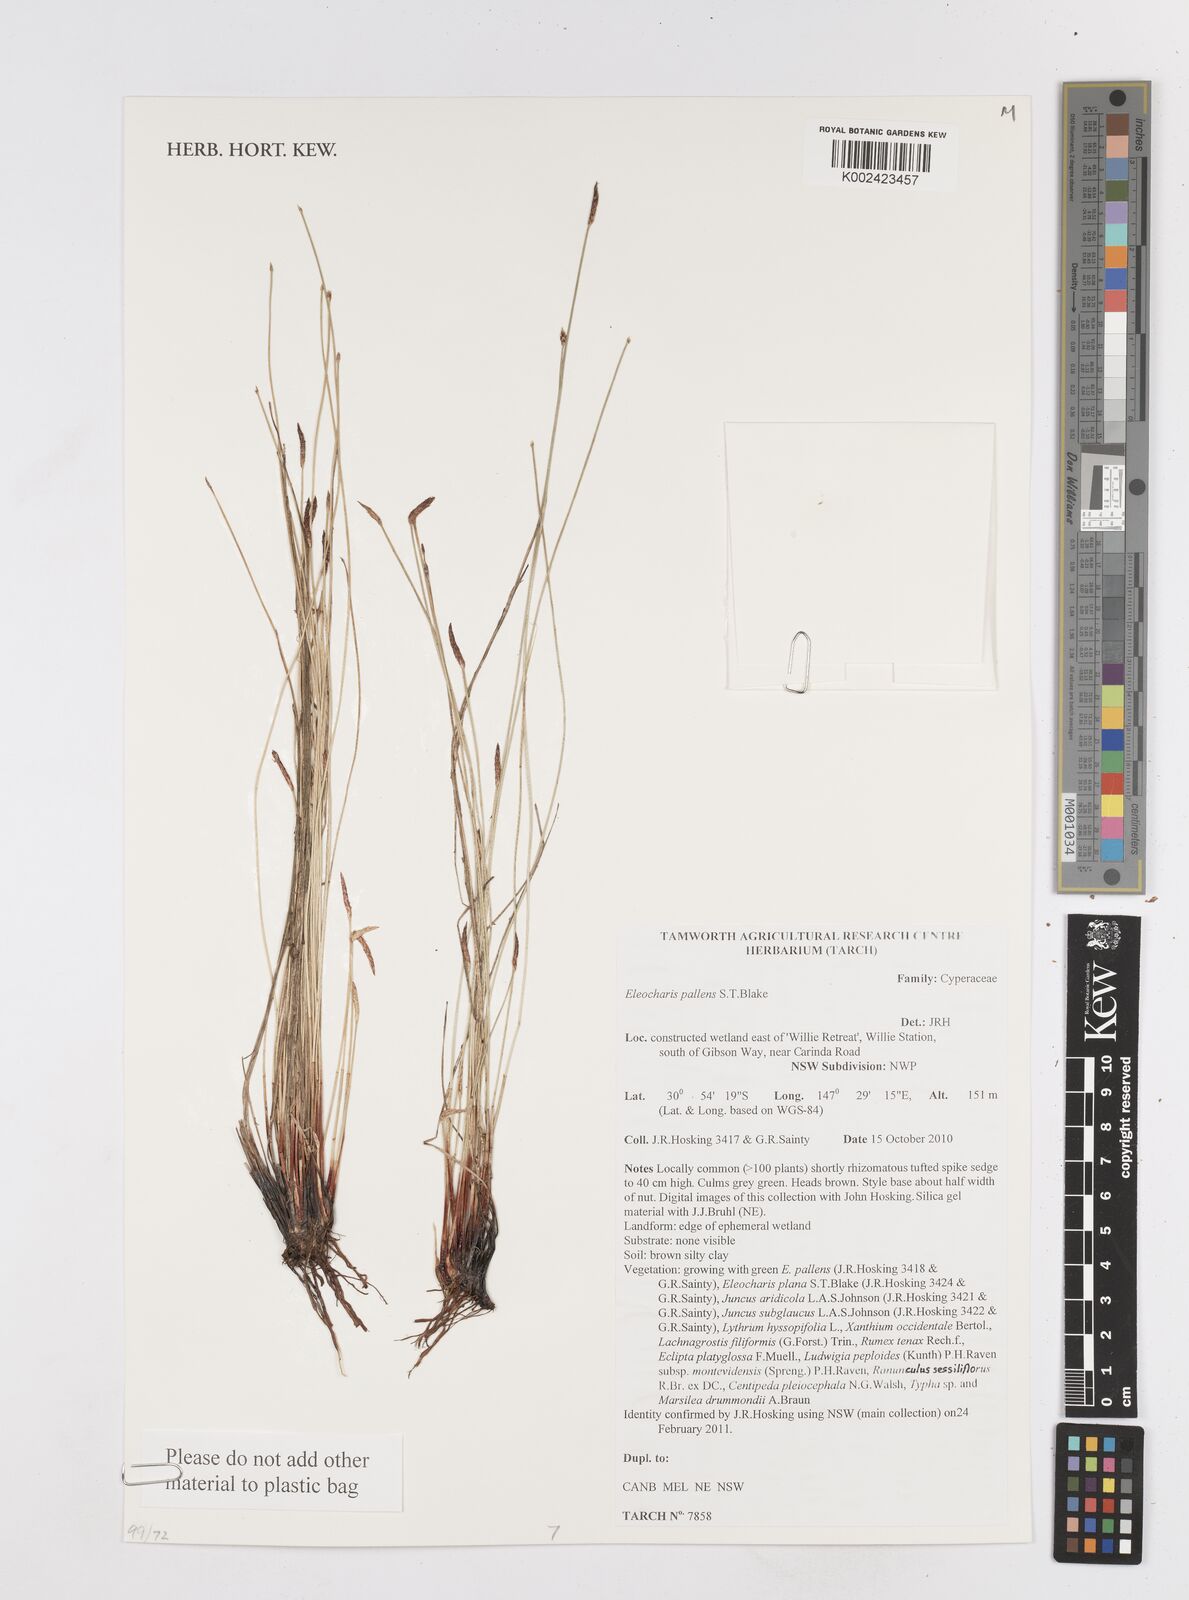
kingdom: Plantae
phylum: Tracheophyta
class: Liliopsida
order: Poales
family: Cyperaceae
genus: Eleocharis
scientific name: Eleocharis acuta
